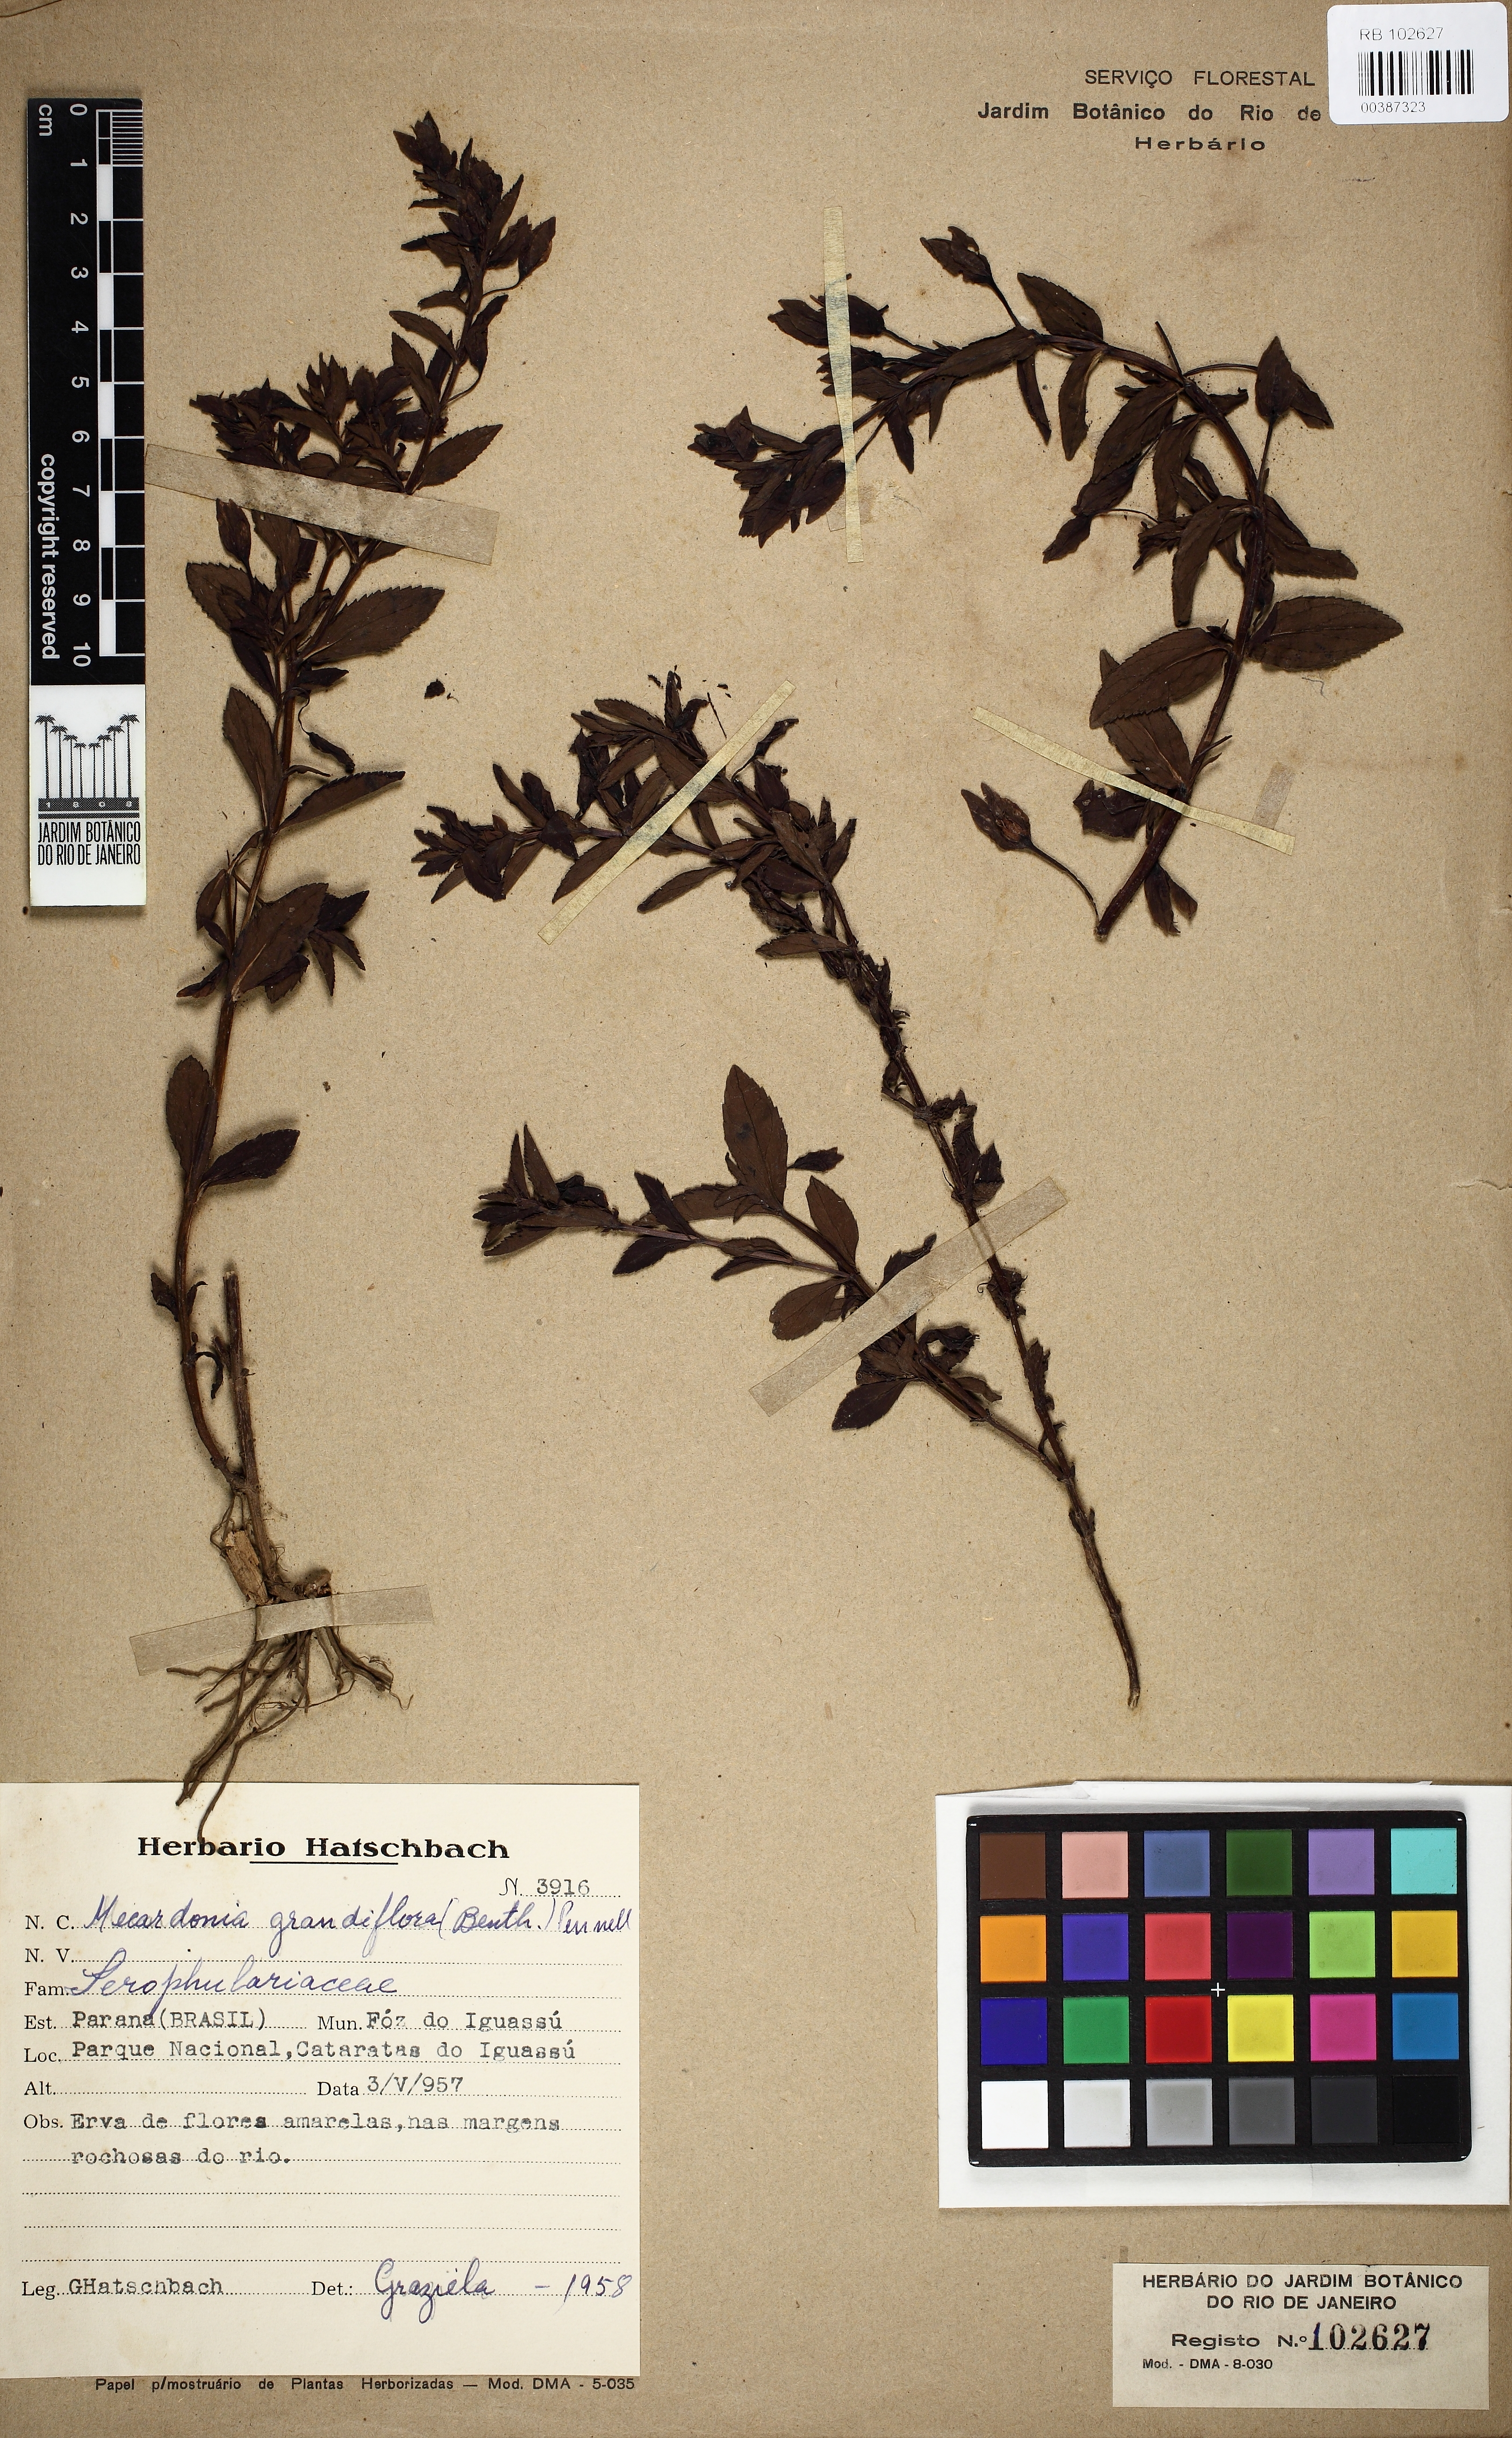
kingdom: Plantae
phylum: Tracheophyta
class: Magnoliopsida
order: Lamiales
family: Plantaginaceae
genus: Mecardonia
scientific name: Mecardonia grandiflora
